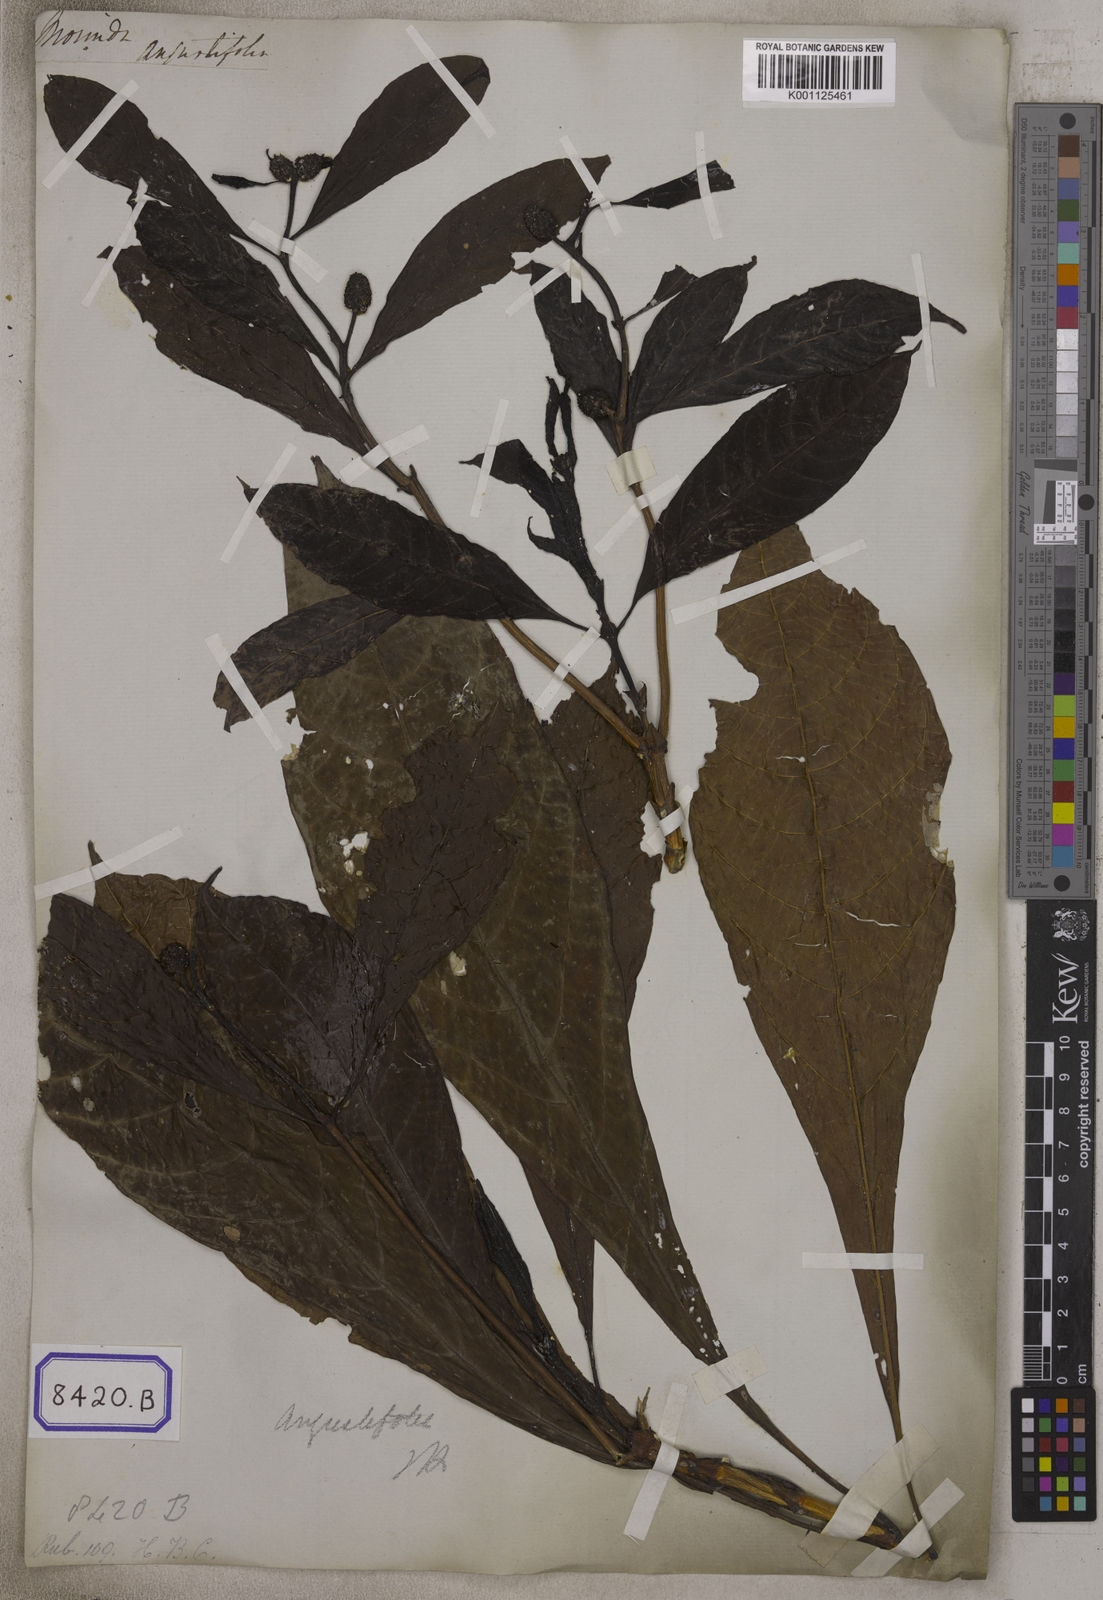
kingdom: Plantae
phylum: Tracheophyta
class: Magnoliopsida
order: Gentianales
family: Rubiaceae
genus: Morinda
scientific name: Morinda angustifolia
